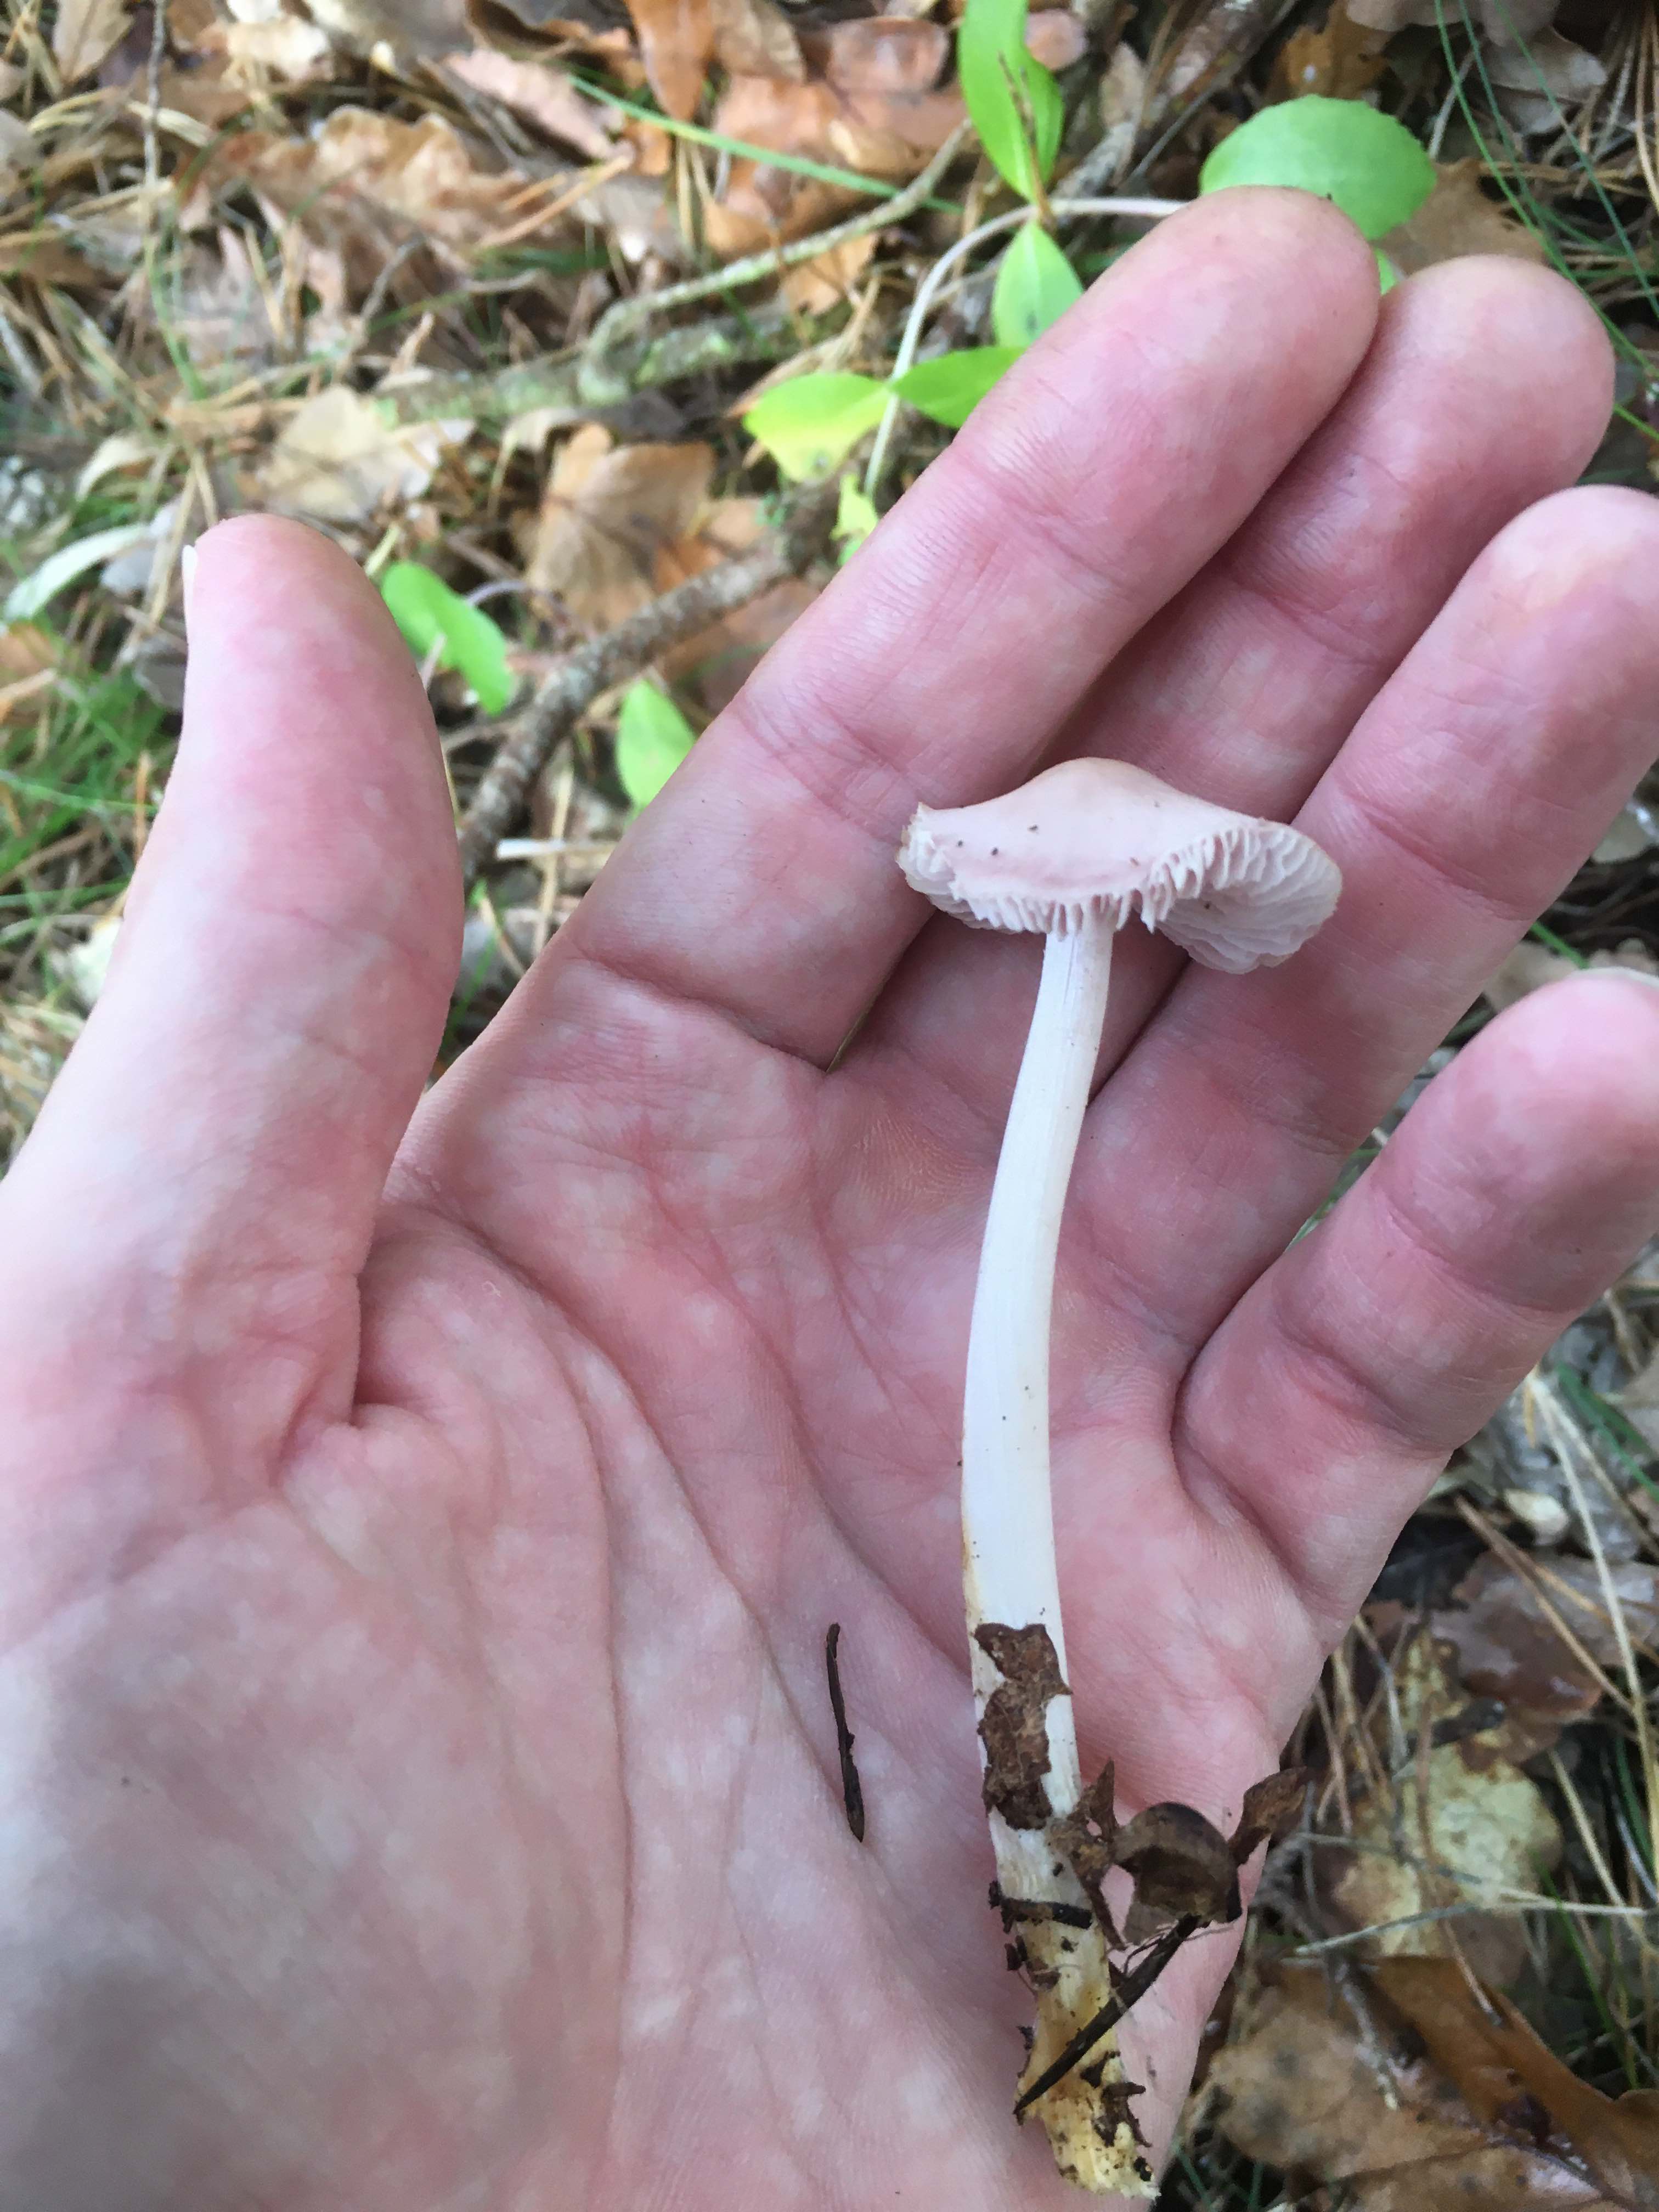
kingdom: Fungi
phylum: Basidiomycota
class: Agaricomycetes
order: Agaricales
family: Mycenaceae
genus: Mycena
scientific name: Mycena rosea
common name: rosa huesvamp
